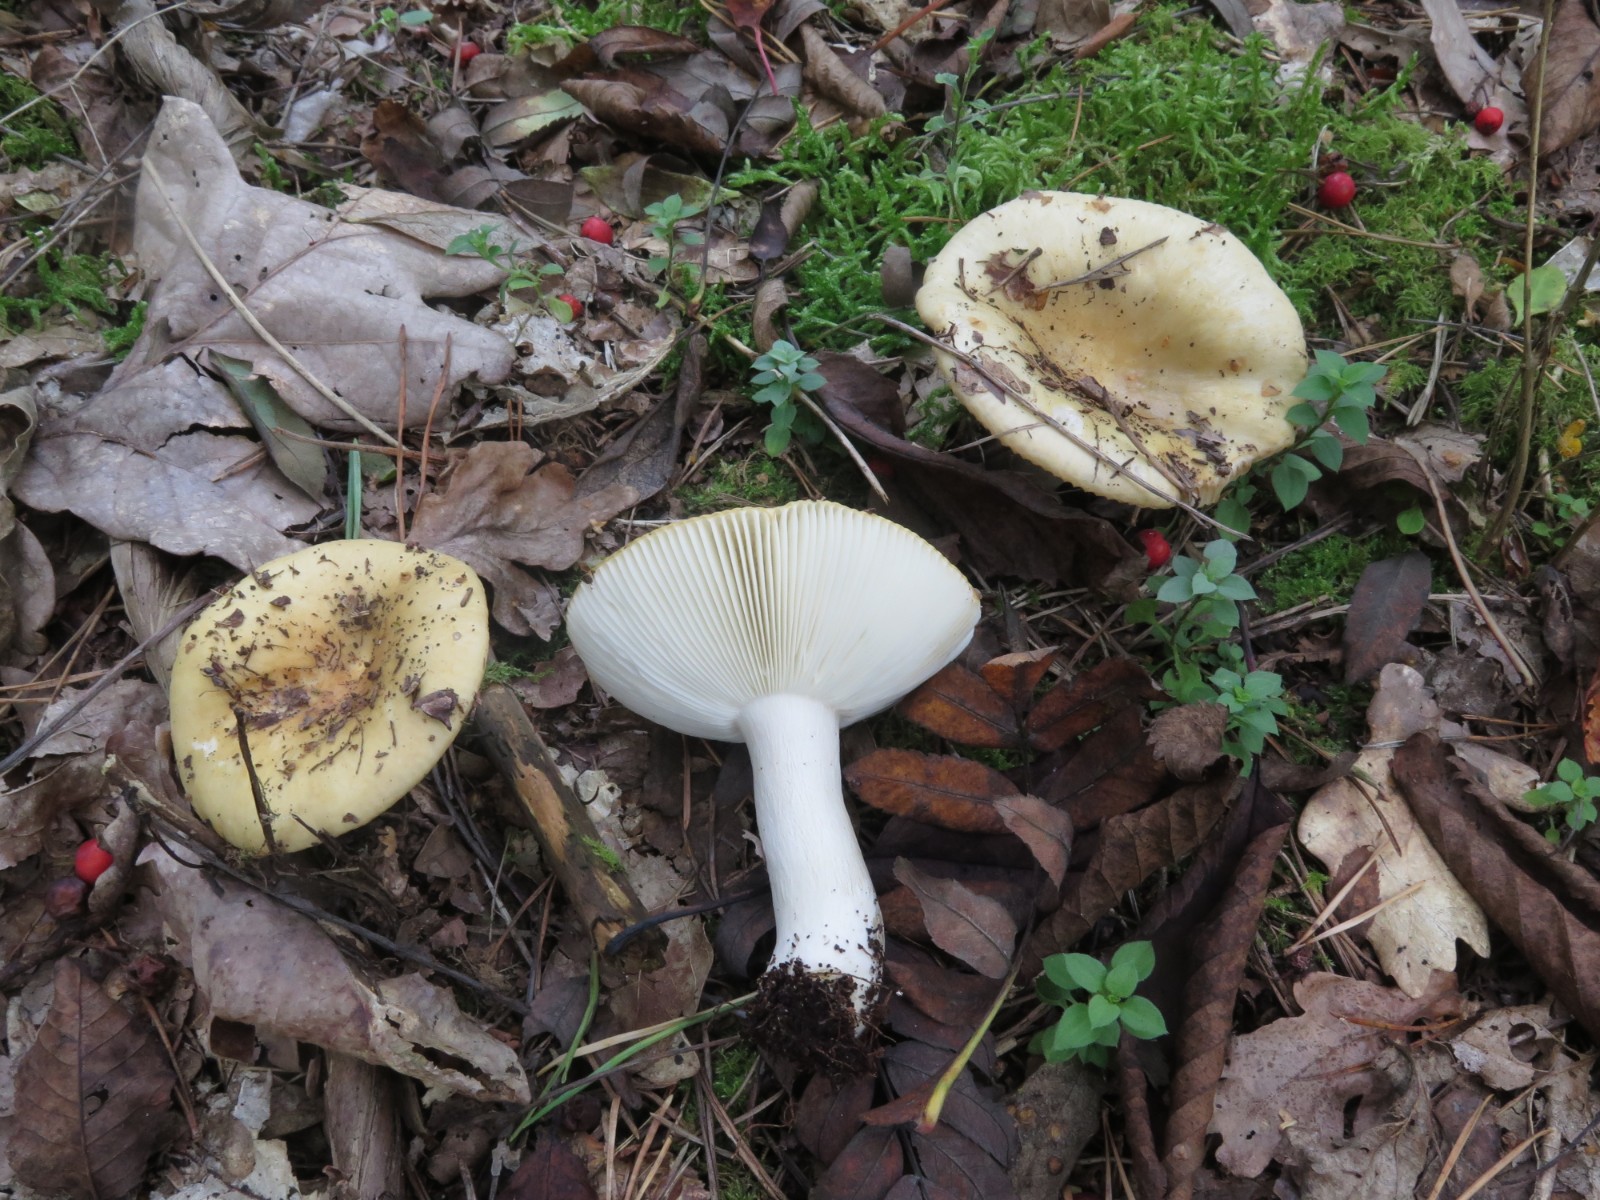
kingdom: Fungi
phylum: Basidiomycota
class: Agaricomycetes
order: Russulales
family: Russulaceae
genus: Russula
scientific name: Russula ochroleuca
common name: okkergul skørhat
